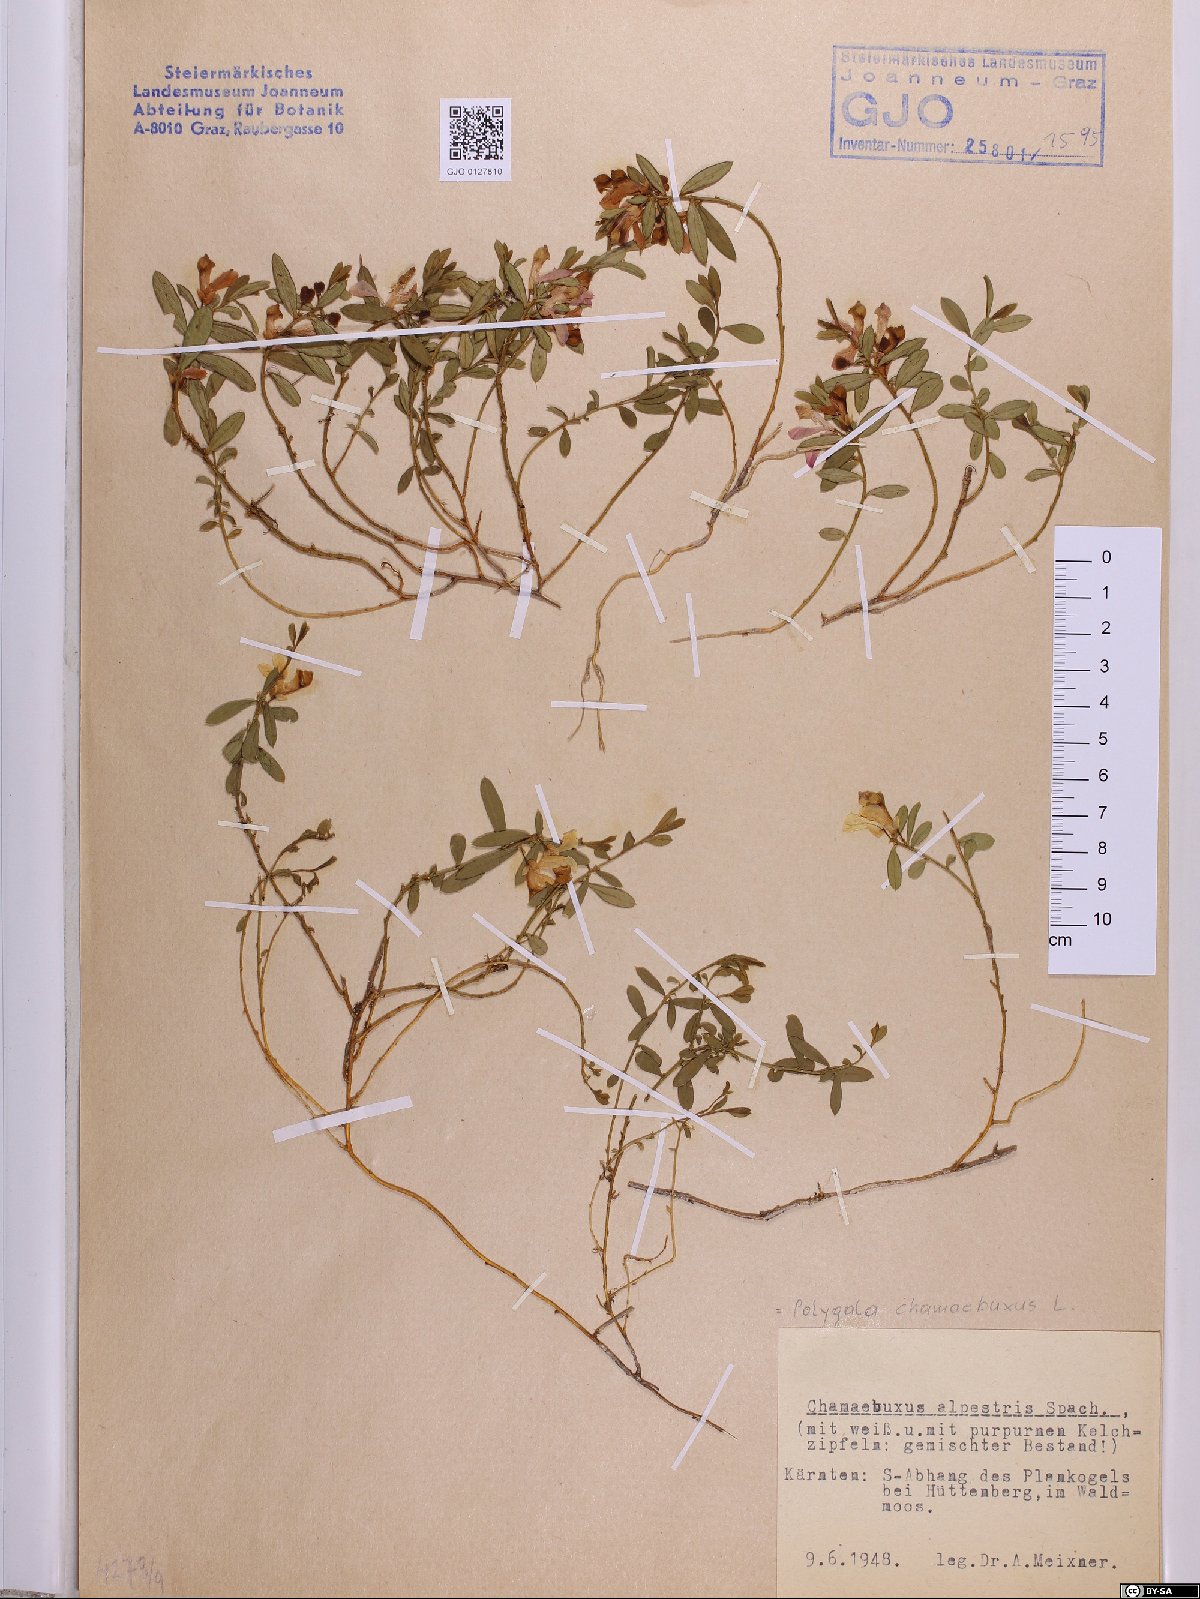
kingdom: Plantae
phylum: Tracheophyta
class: Magnoliopsida
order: Fabales
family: Polygalaceae
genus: Polygaloides
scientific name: Polygaloides chamaebuxus
